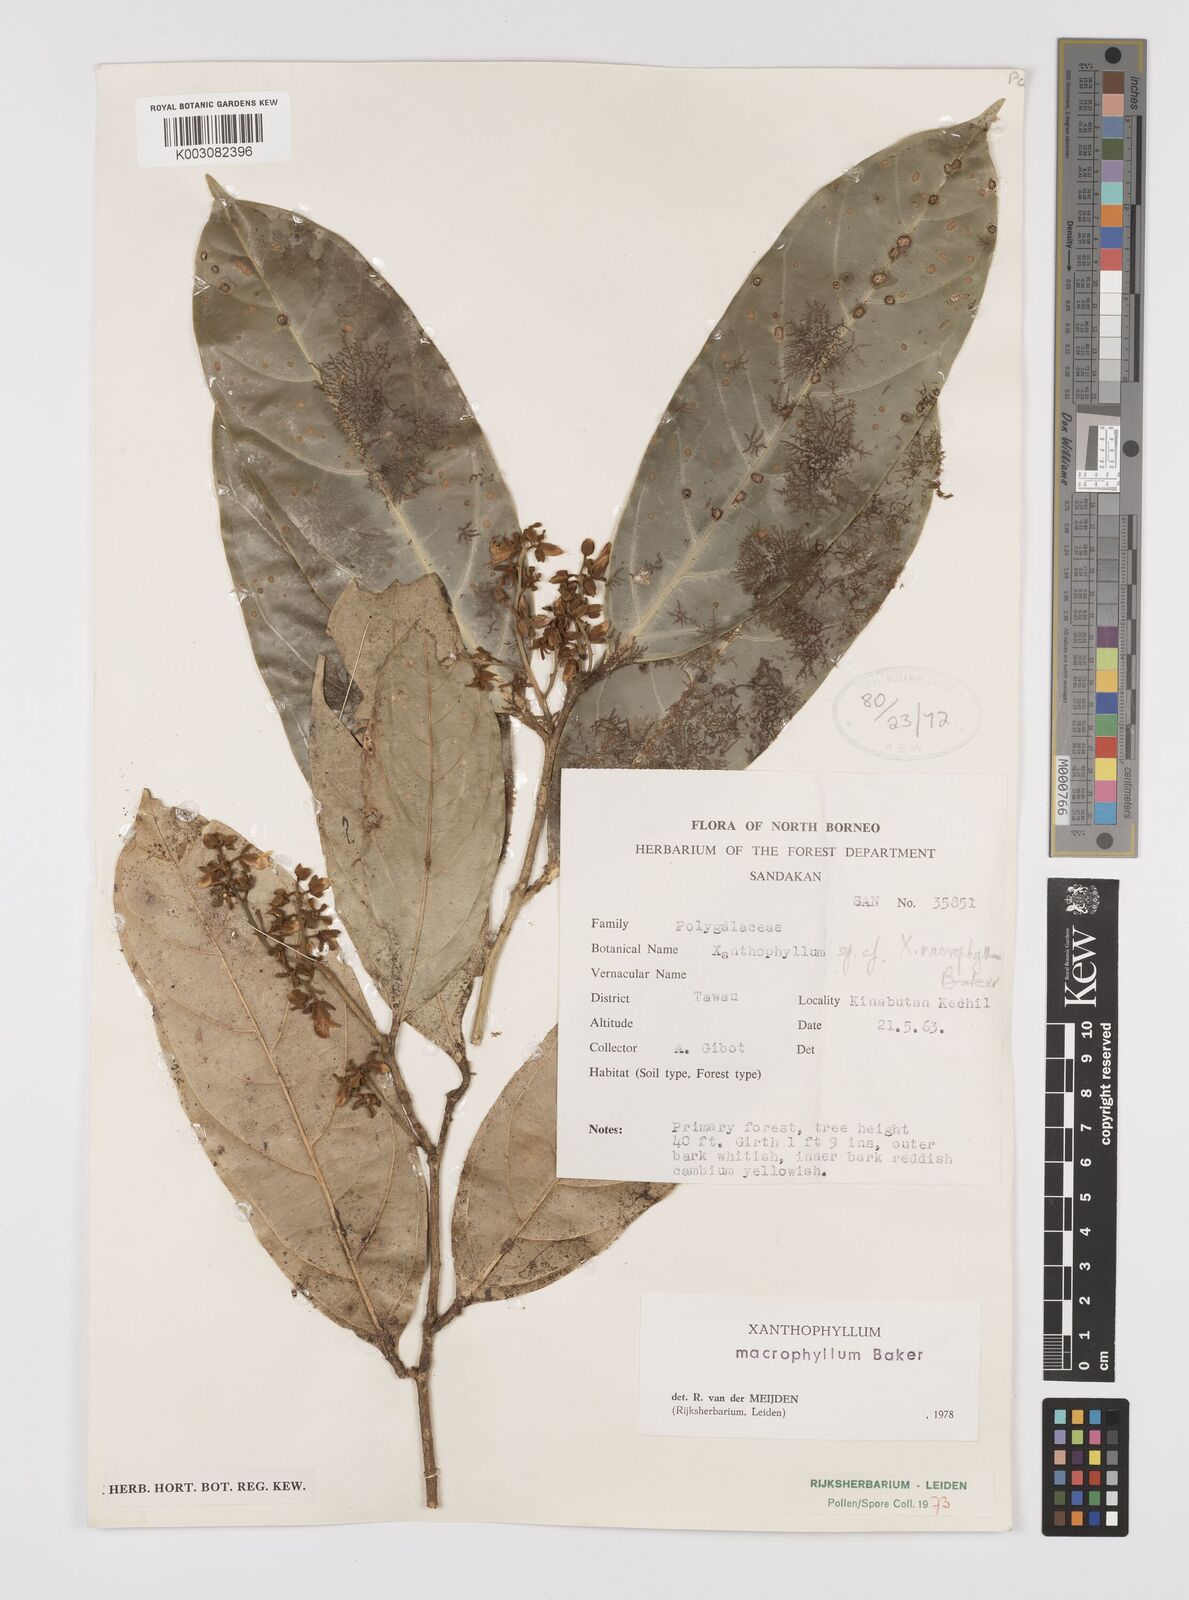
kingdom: Plantae
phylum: Tracheophyta
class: Magnoliopsida
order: Fabales
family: Polygalaceae
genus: Xanthophyllum
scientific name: Xanthophyllum macrophyllum
